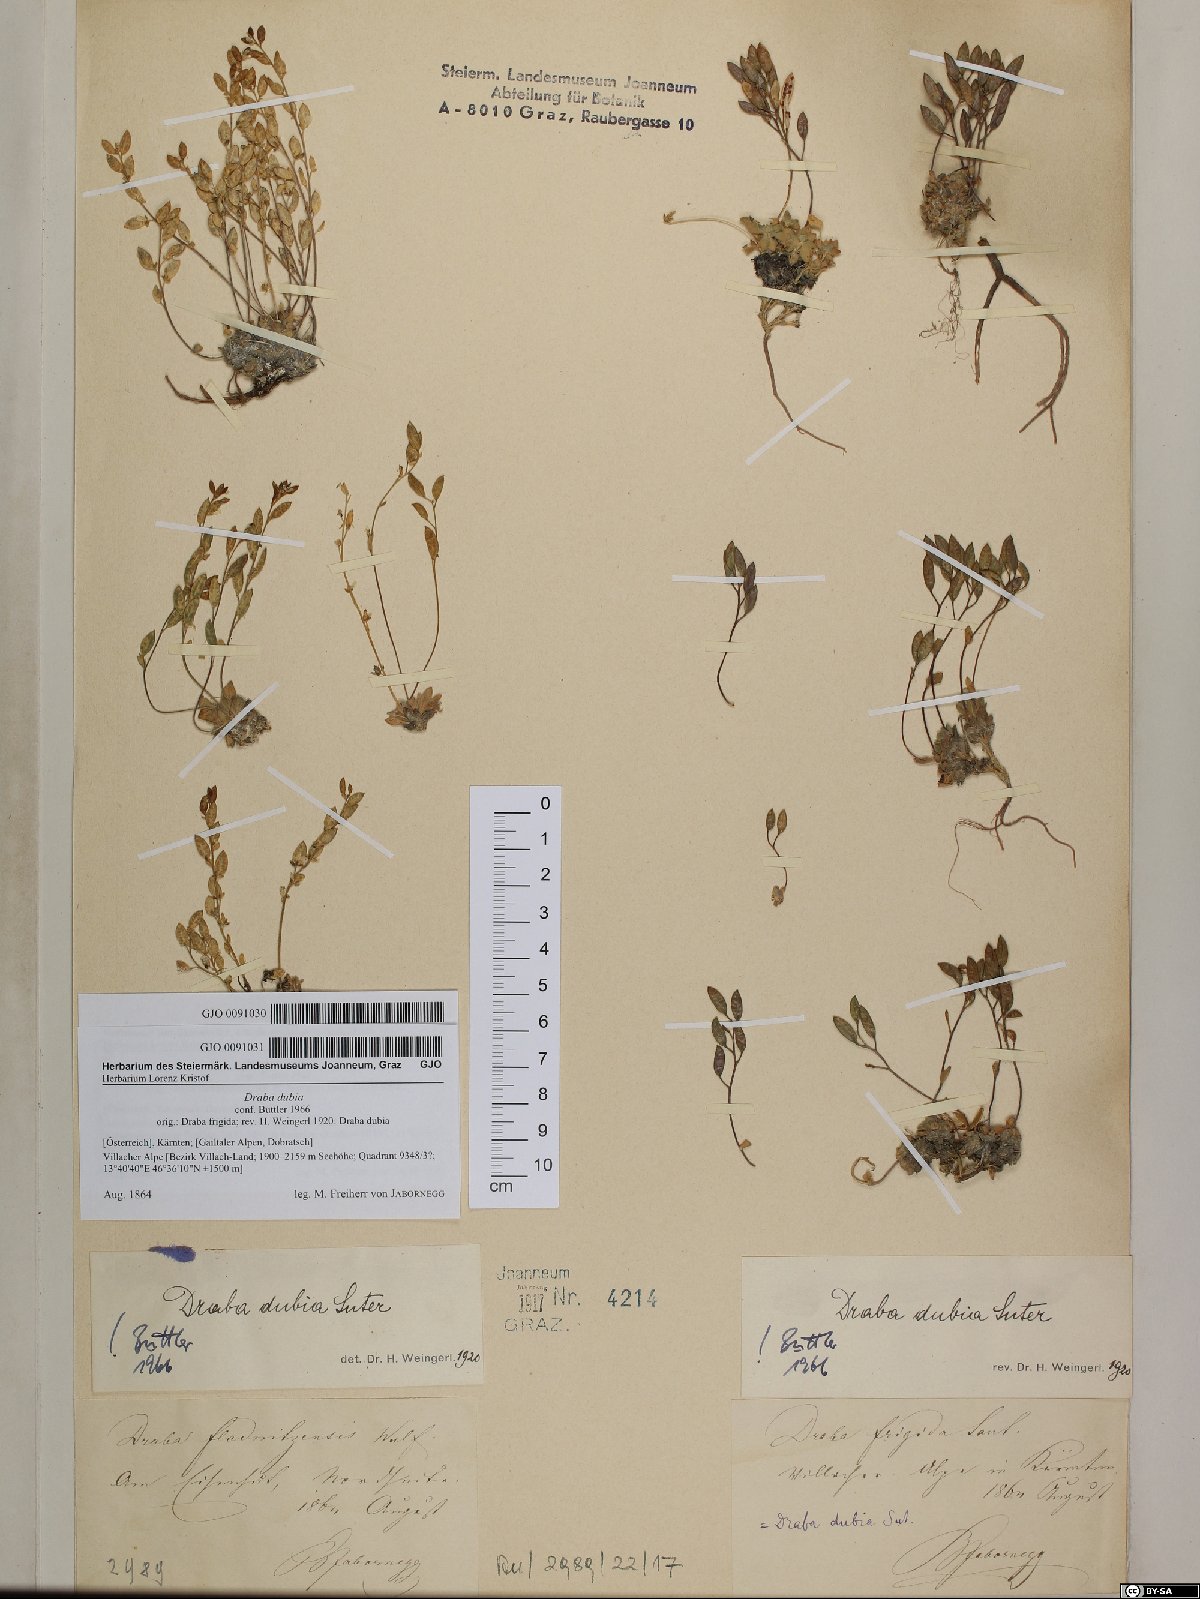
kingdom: Plantae
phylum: Tracheophyta
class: Magnoliopsida
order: Brassicales
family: Brassicaceae
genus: Draba
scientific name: Draba dubia
